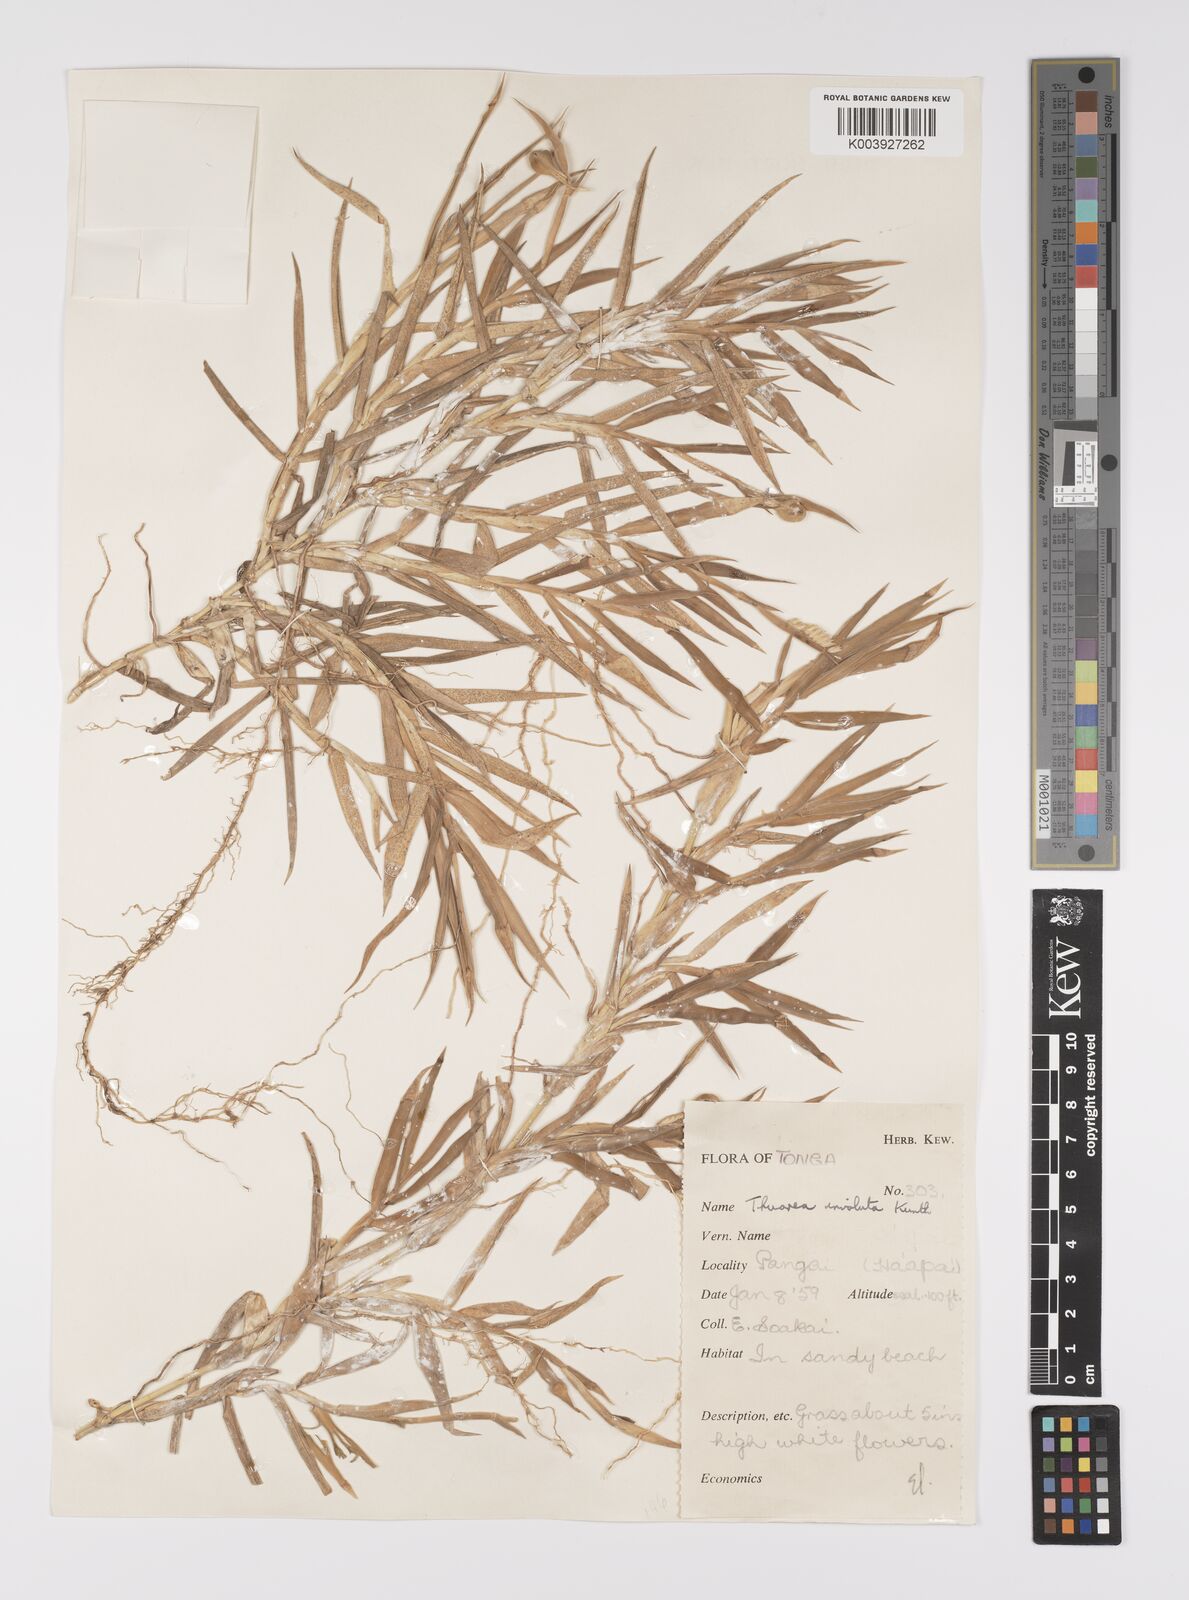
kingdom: Plantae
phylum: Tracheophyta
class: Liliopsida
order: Poales
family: Poaceae
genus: Thuarea
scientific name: Thuarea involuta
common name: Tropical beach grass
